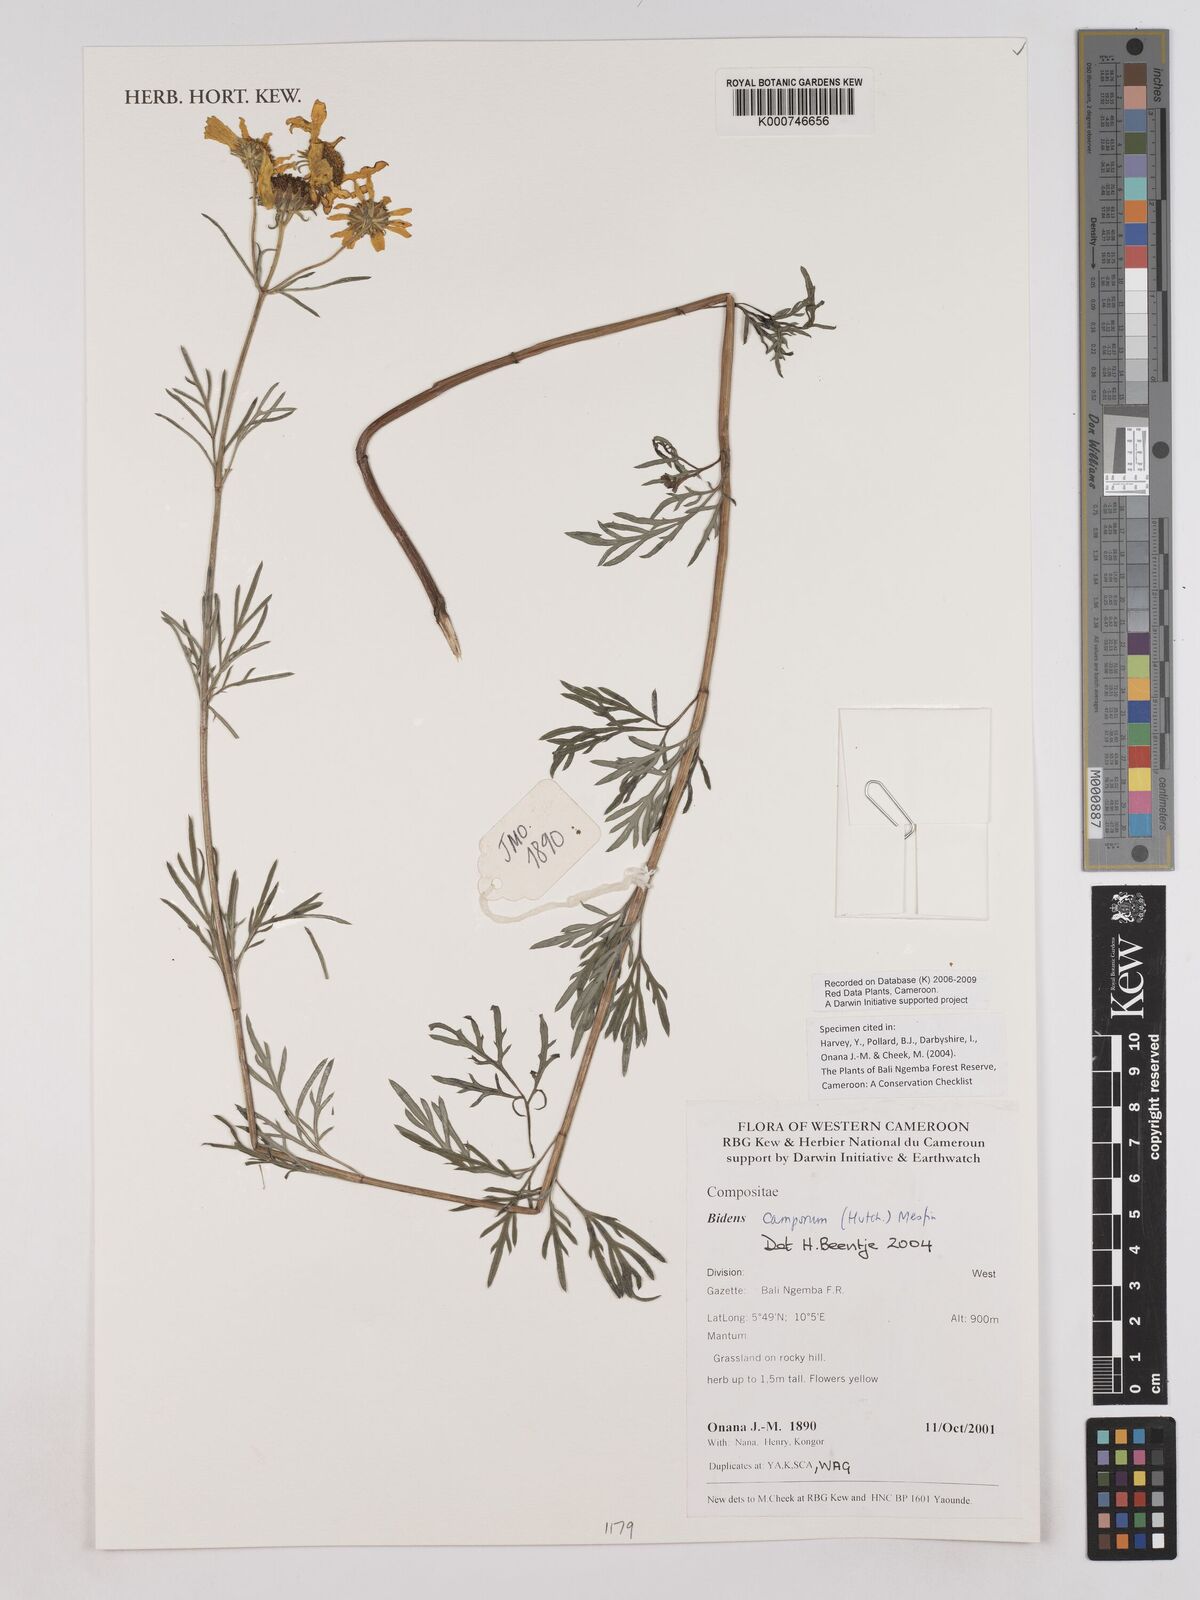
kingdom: Plantae
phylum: Tracheophyta
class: Magnoliopsida
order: Asterales
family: Asteraceae
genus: Bidens
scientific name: Bidens camporum
